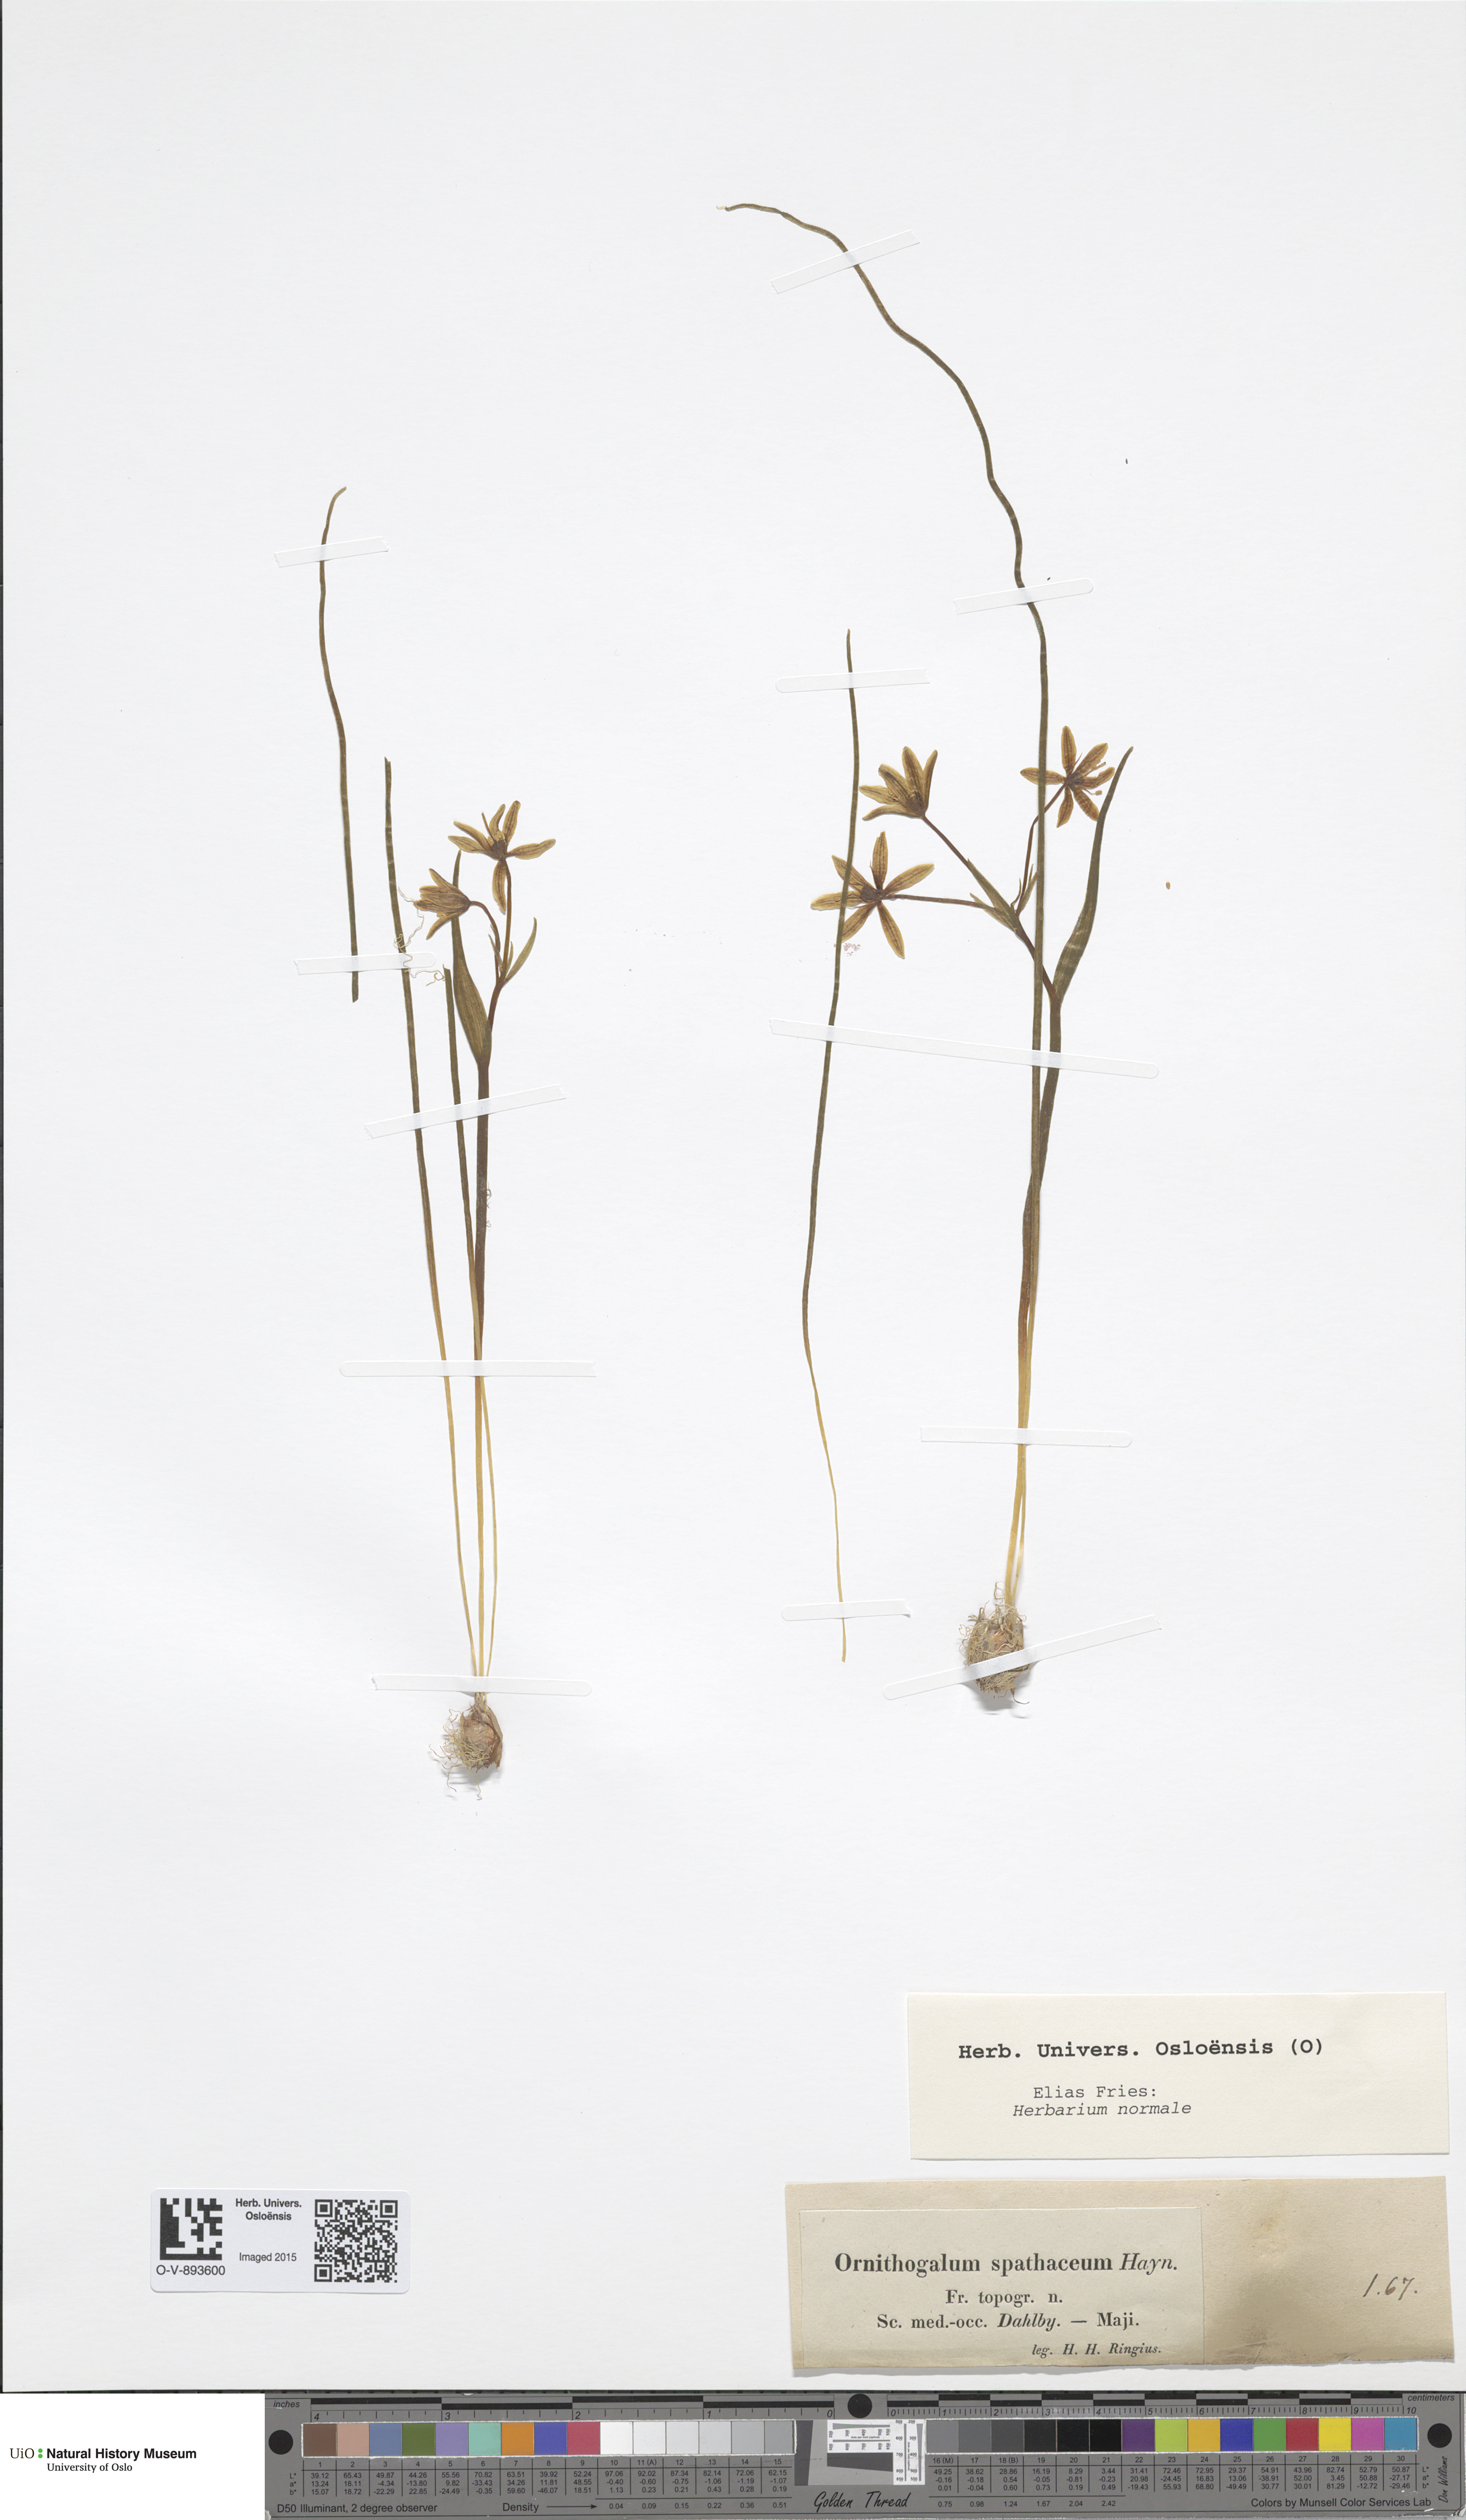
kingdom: Plantae
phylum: Tracheophyta
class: Liliopsida
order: Liliales
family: Liliaceae
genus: Gagea
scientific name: Gagea spathacea
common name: Belgian gagea
